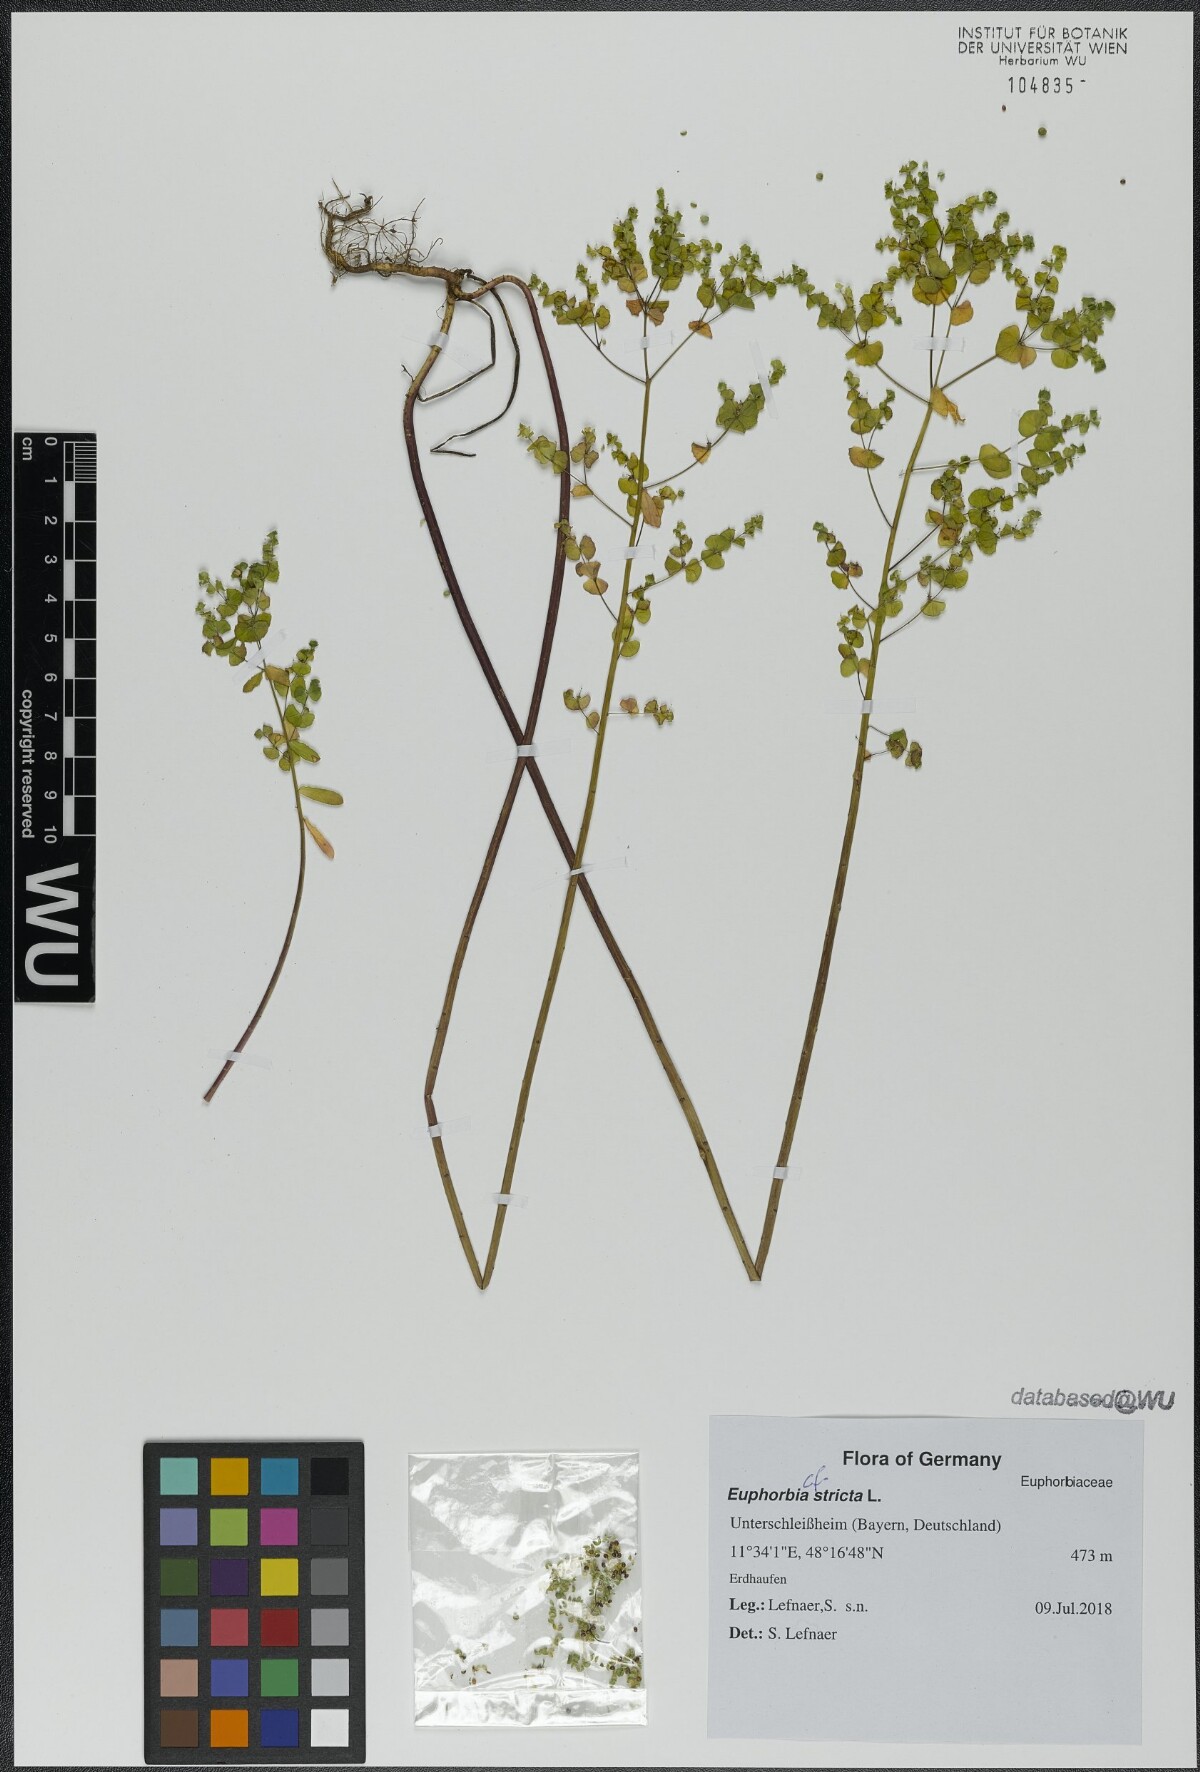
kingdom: Plantae
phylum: Tracheophyta
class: Magnoliopsida
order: Malpighiales
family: Euphorbiaceae
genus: Euphorbia
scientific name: Euphorbia stricta
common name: Upright spurge
